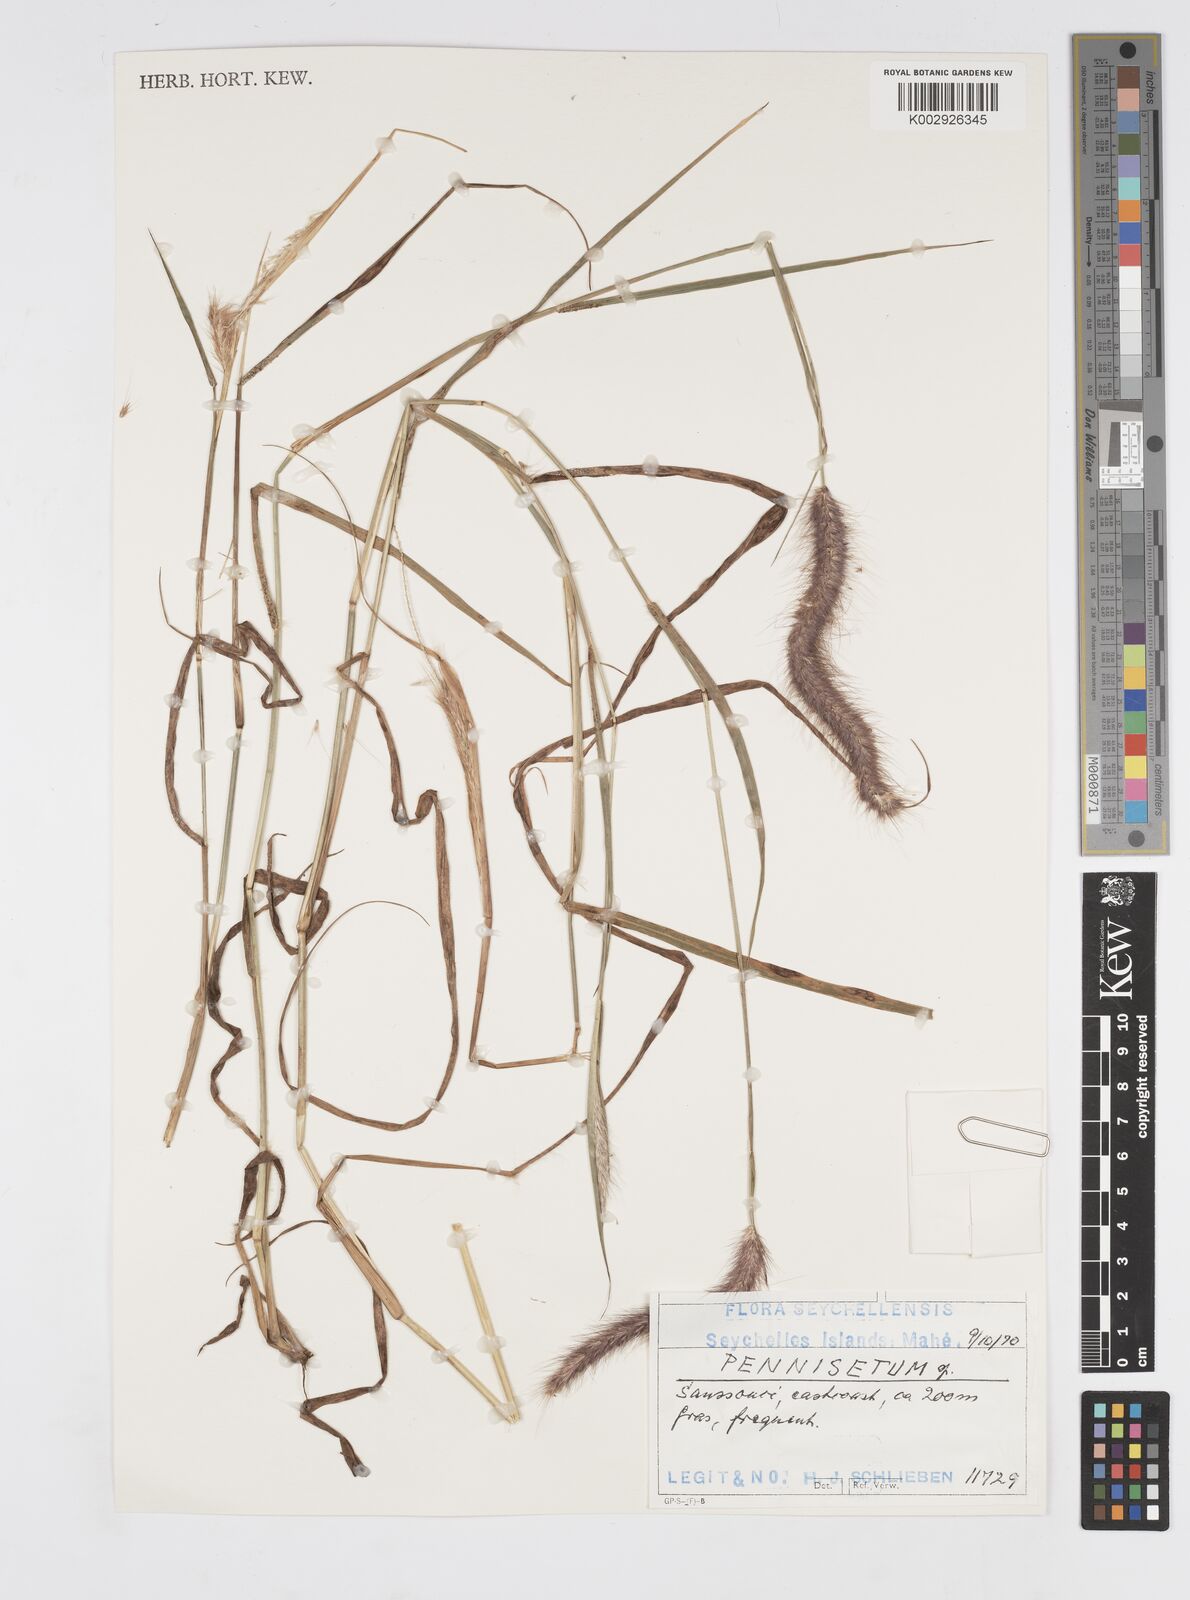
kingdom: Plantae
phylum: Tracheophyta
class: Liliopsida
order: Poales
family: Poaceae
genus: Setaria
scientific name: Setaria parviflora
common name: Knotroot bristle-grass
